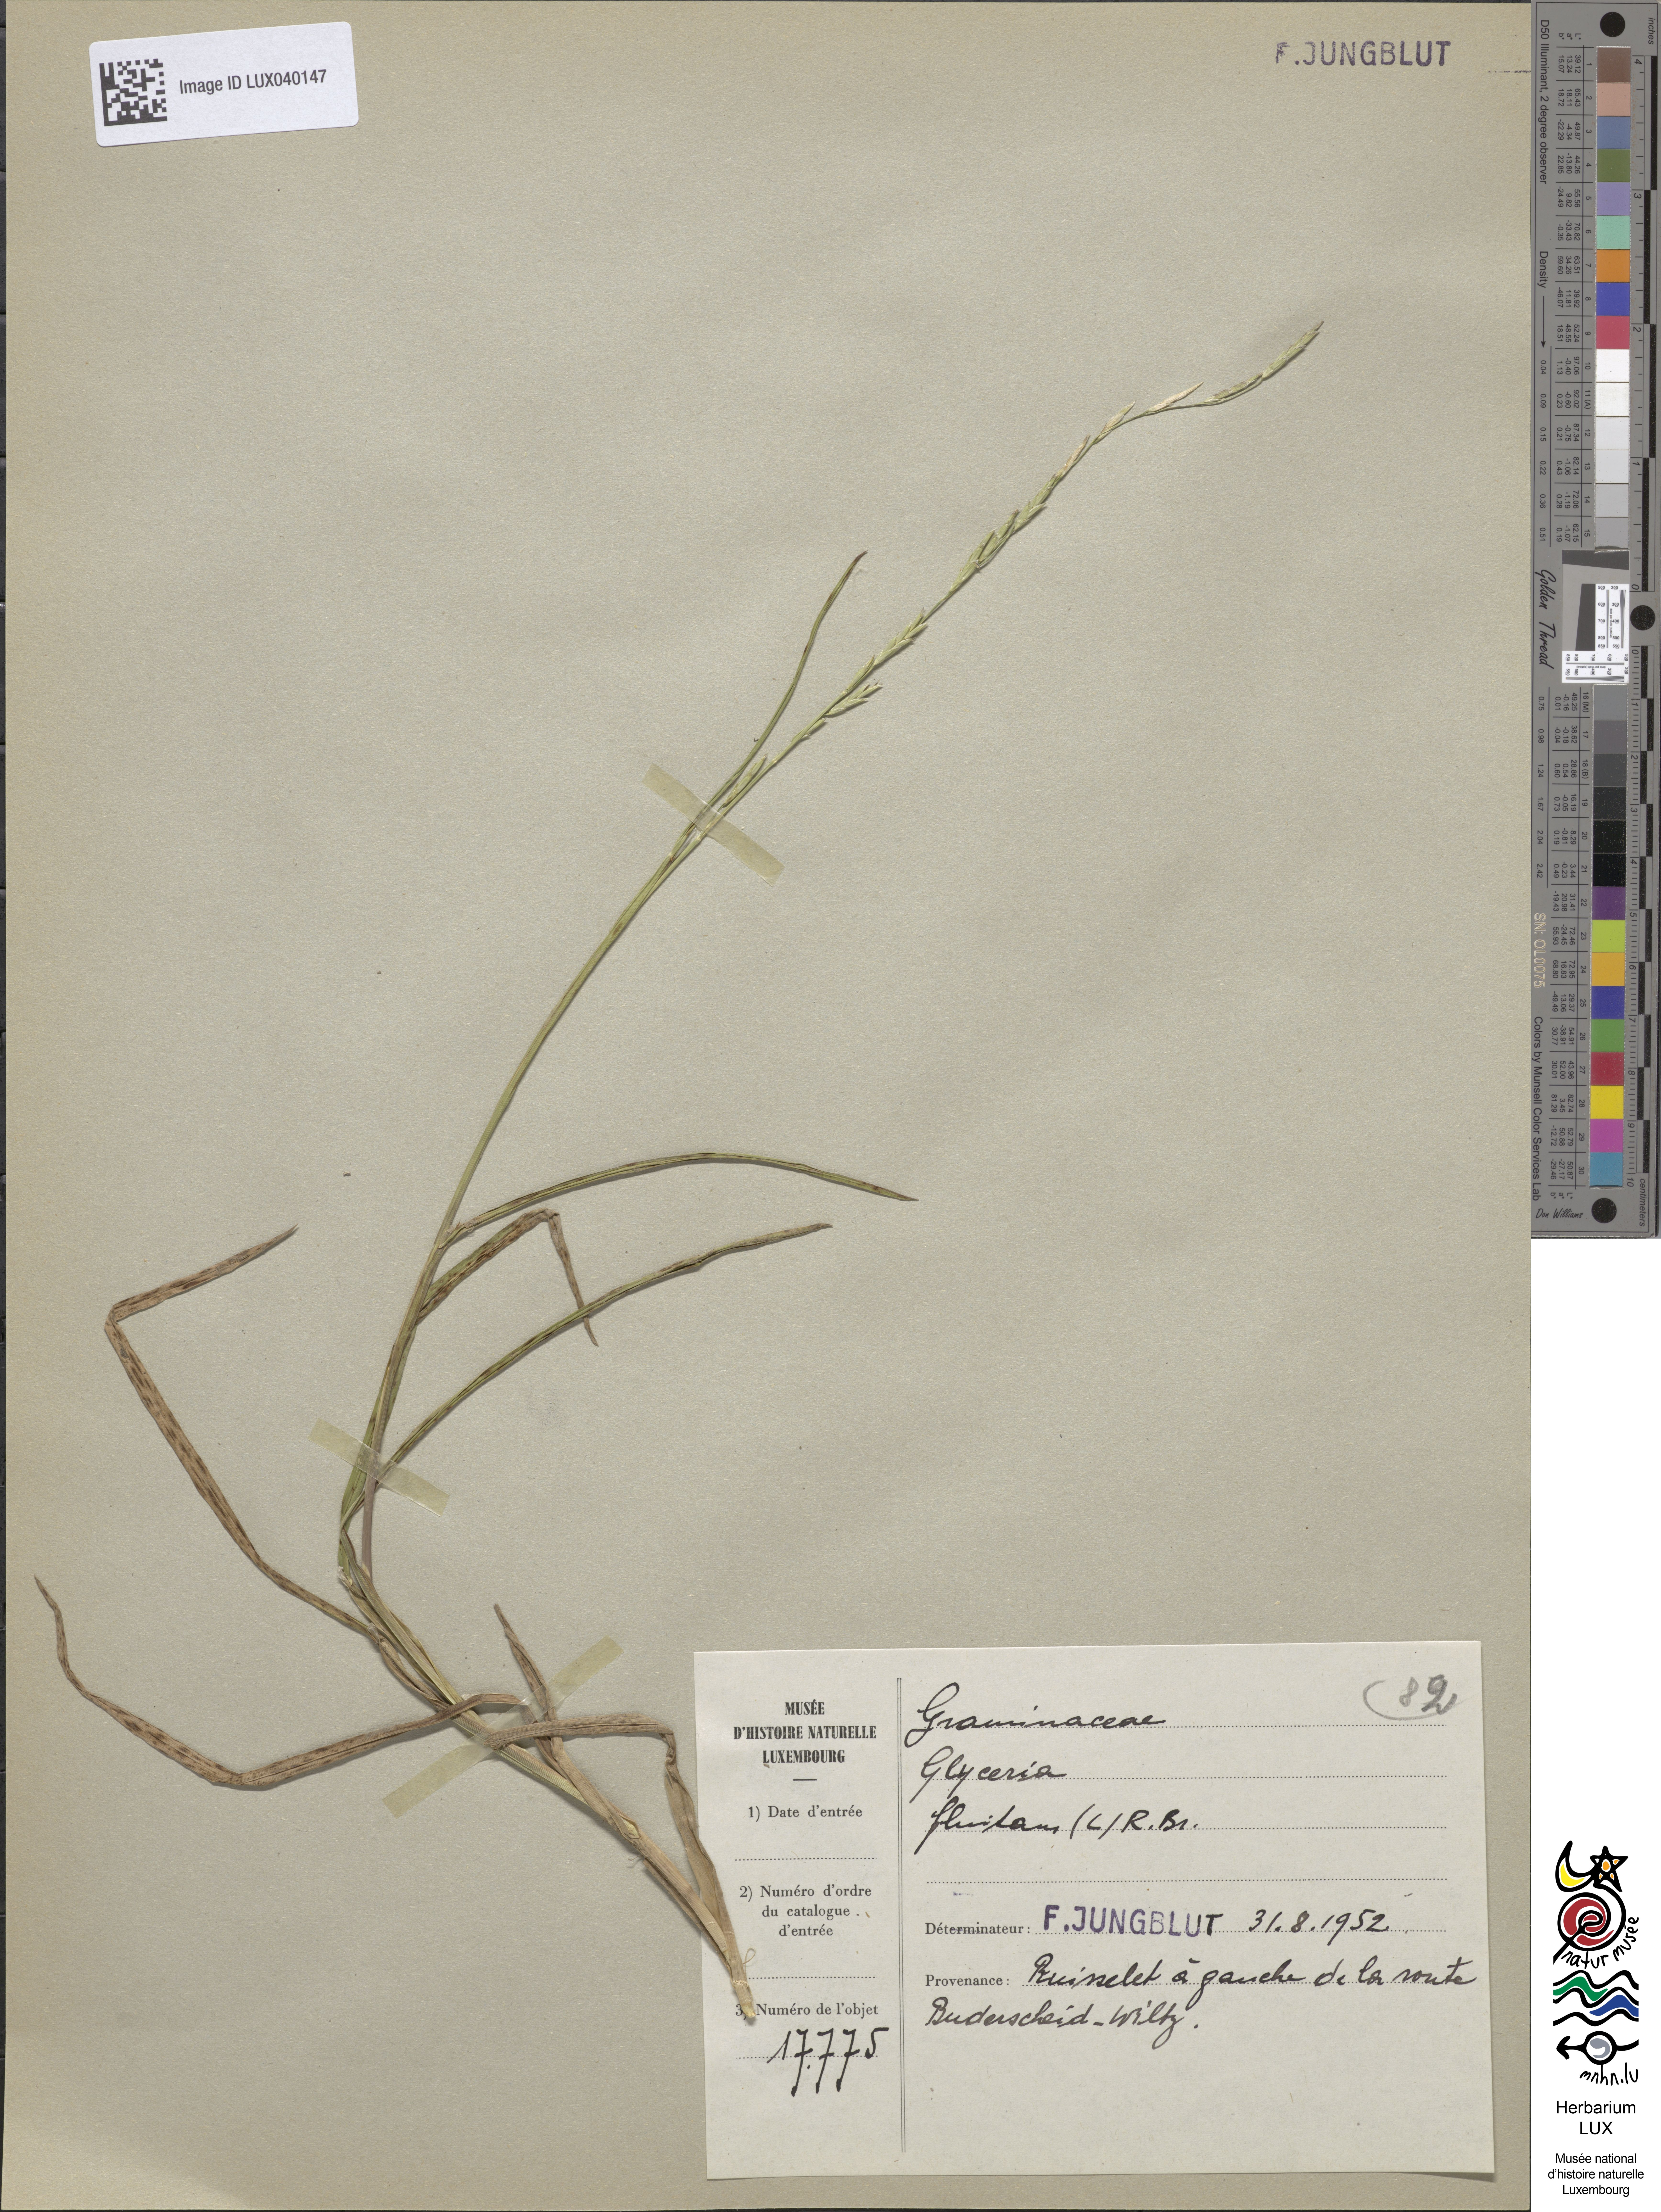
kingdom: Plantae
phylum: Tracheophyta
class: Liliopsida
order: Poales
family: Poaceae
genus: Glyceria
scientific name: Glyceria fluitans
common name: Floating sweet-grass
